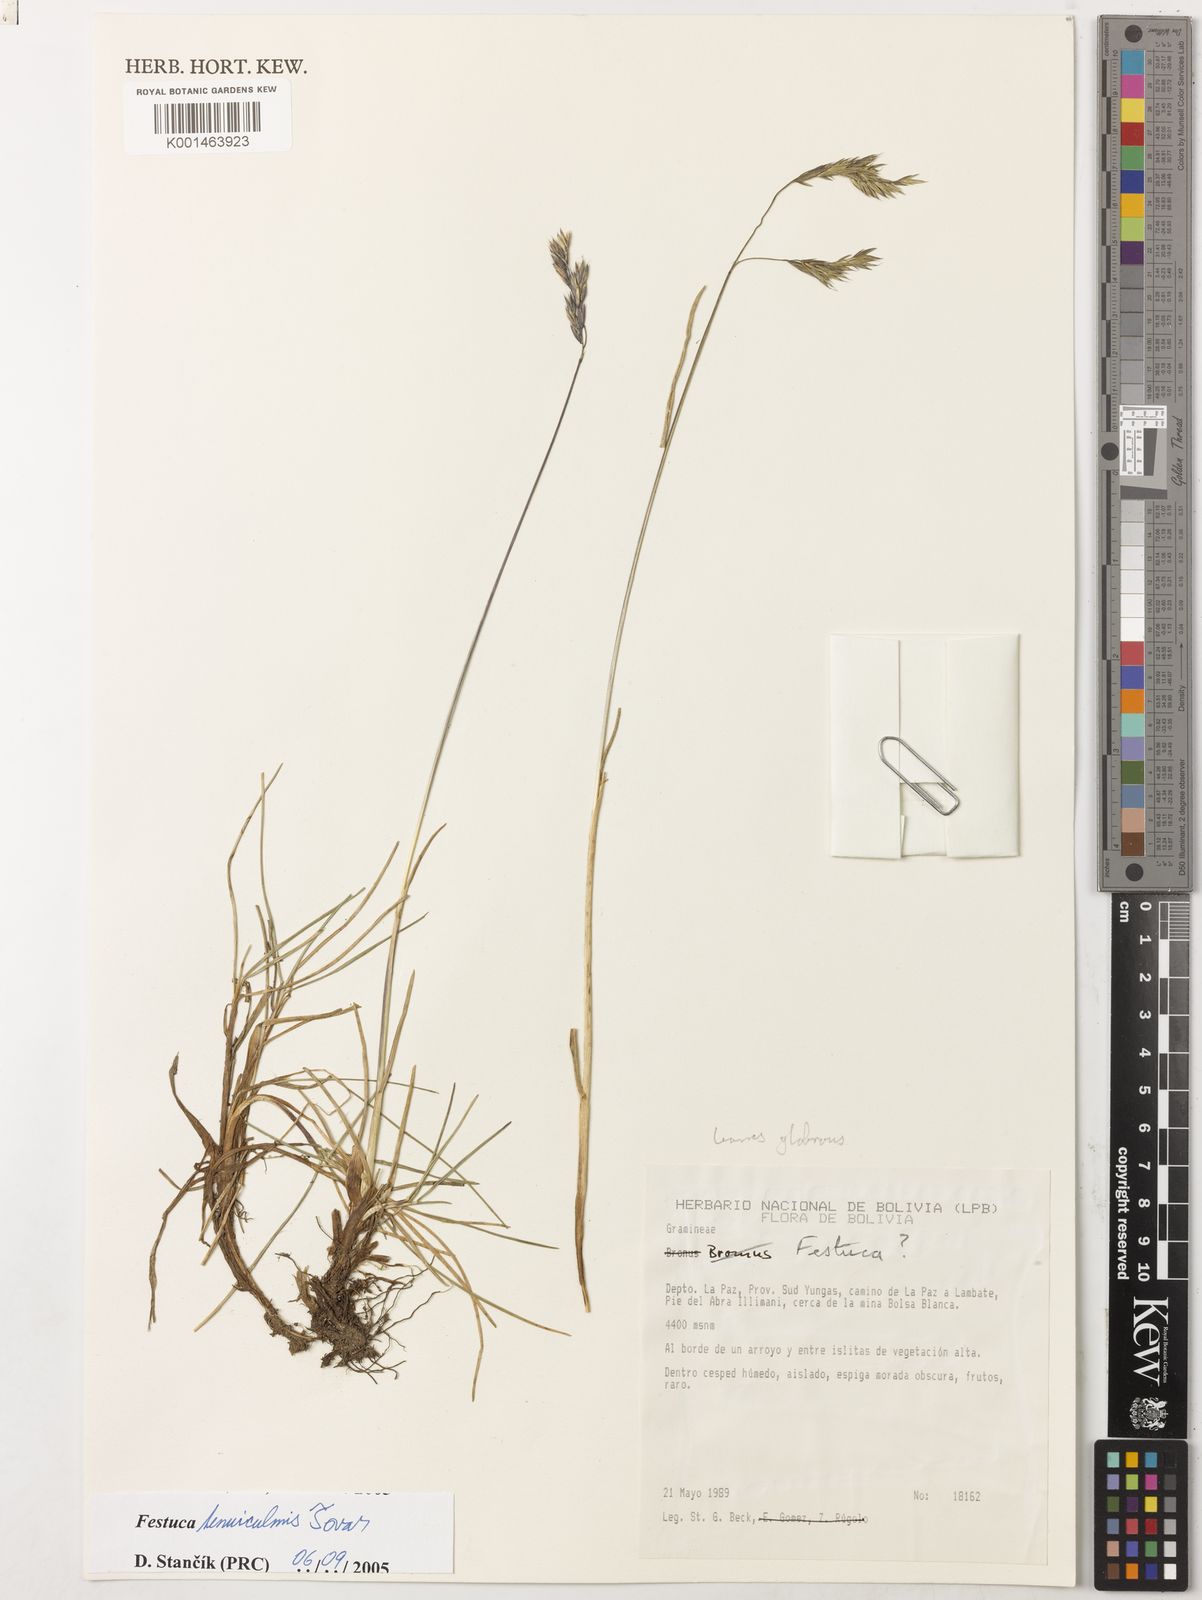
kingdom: Plantae
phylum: Tracheophyta
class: Liliopsida
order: Poales
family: Poaceae
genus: Poa
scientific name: Poa annua
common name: Annual bluegrass
